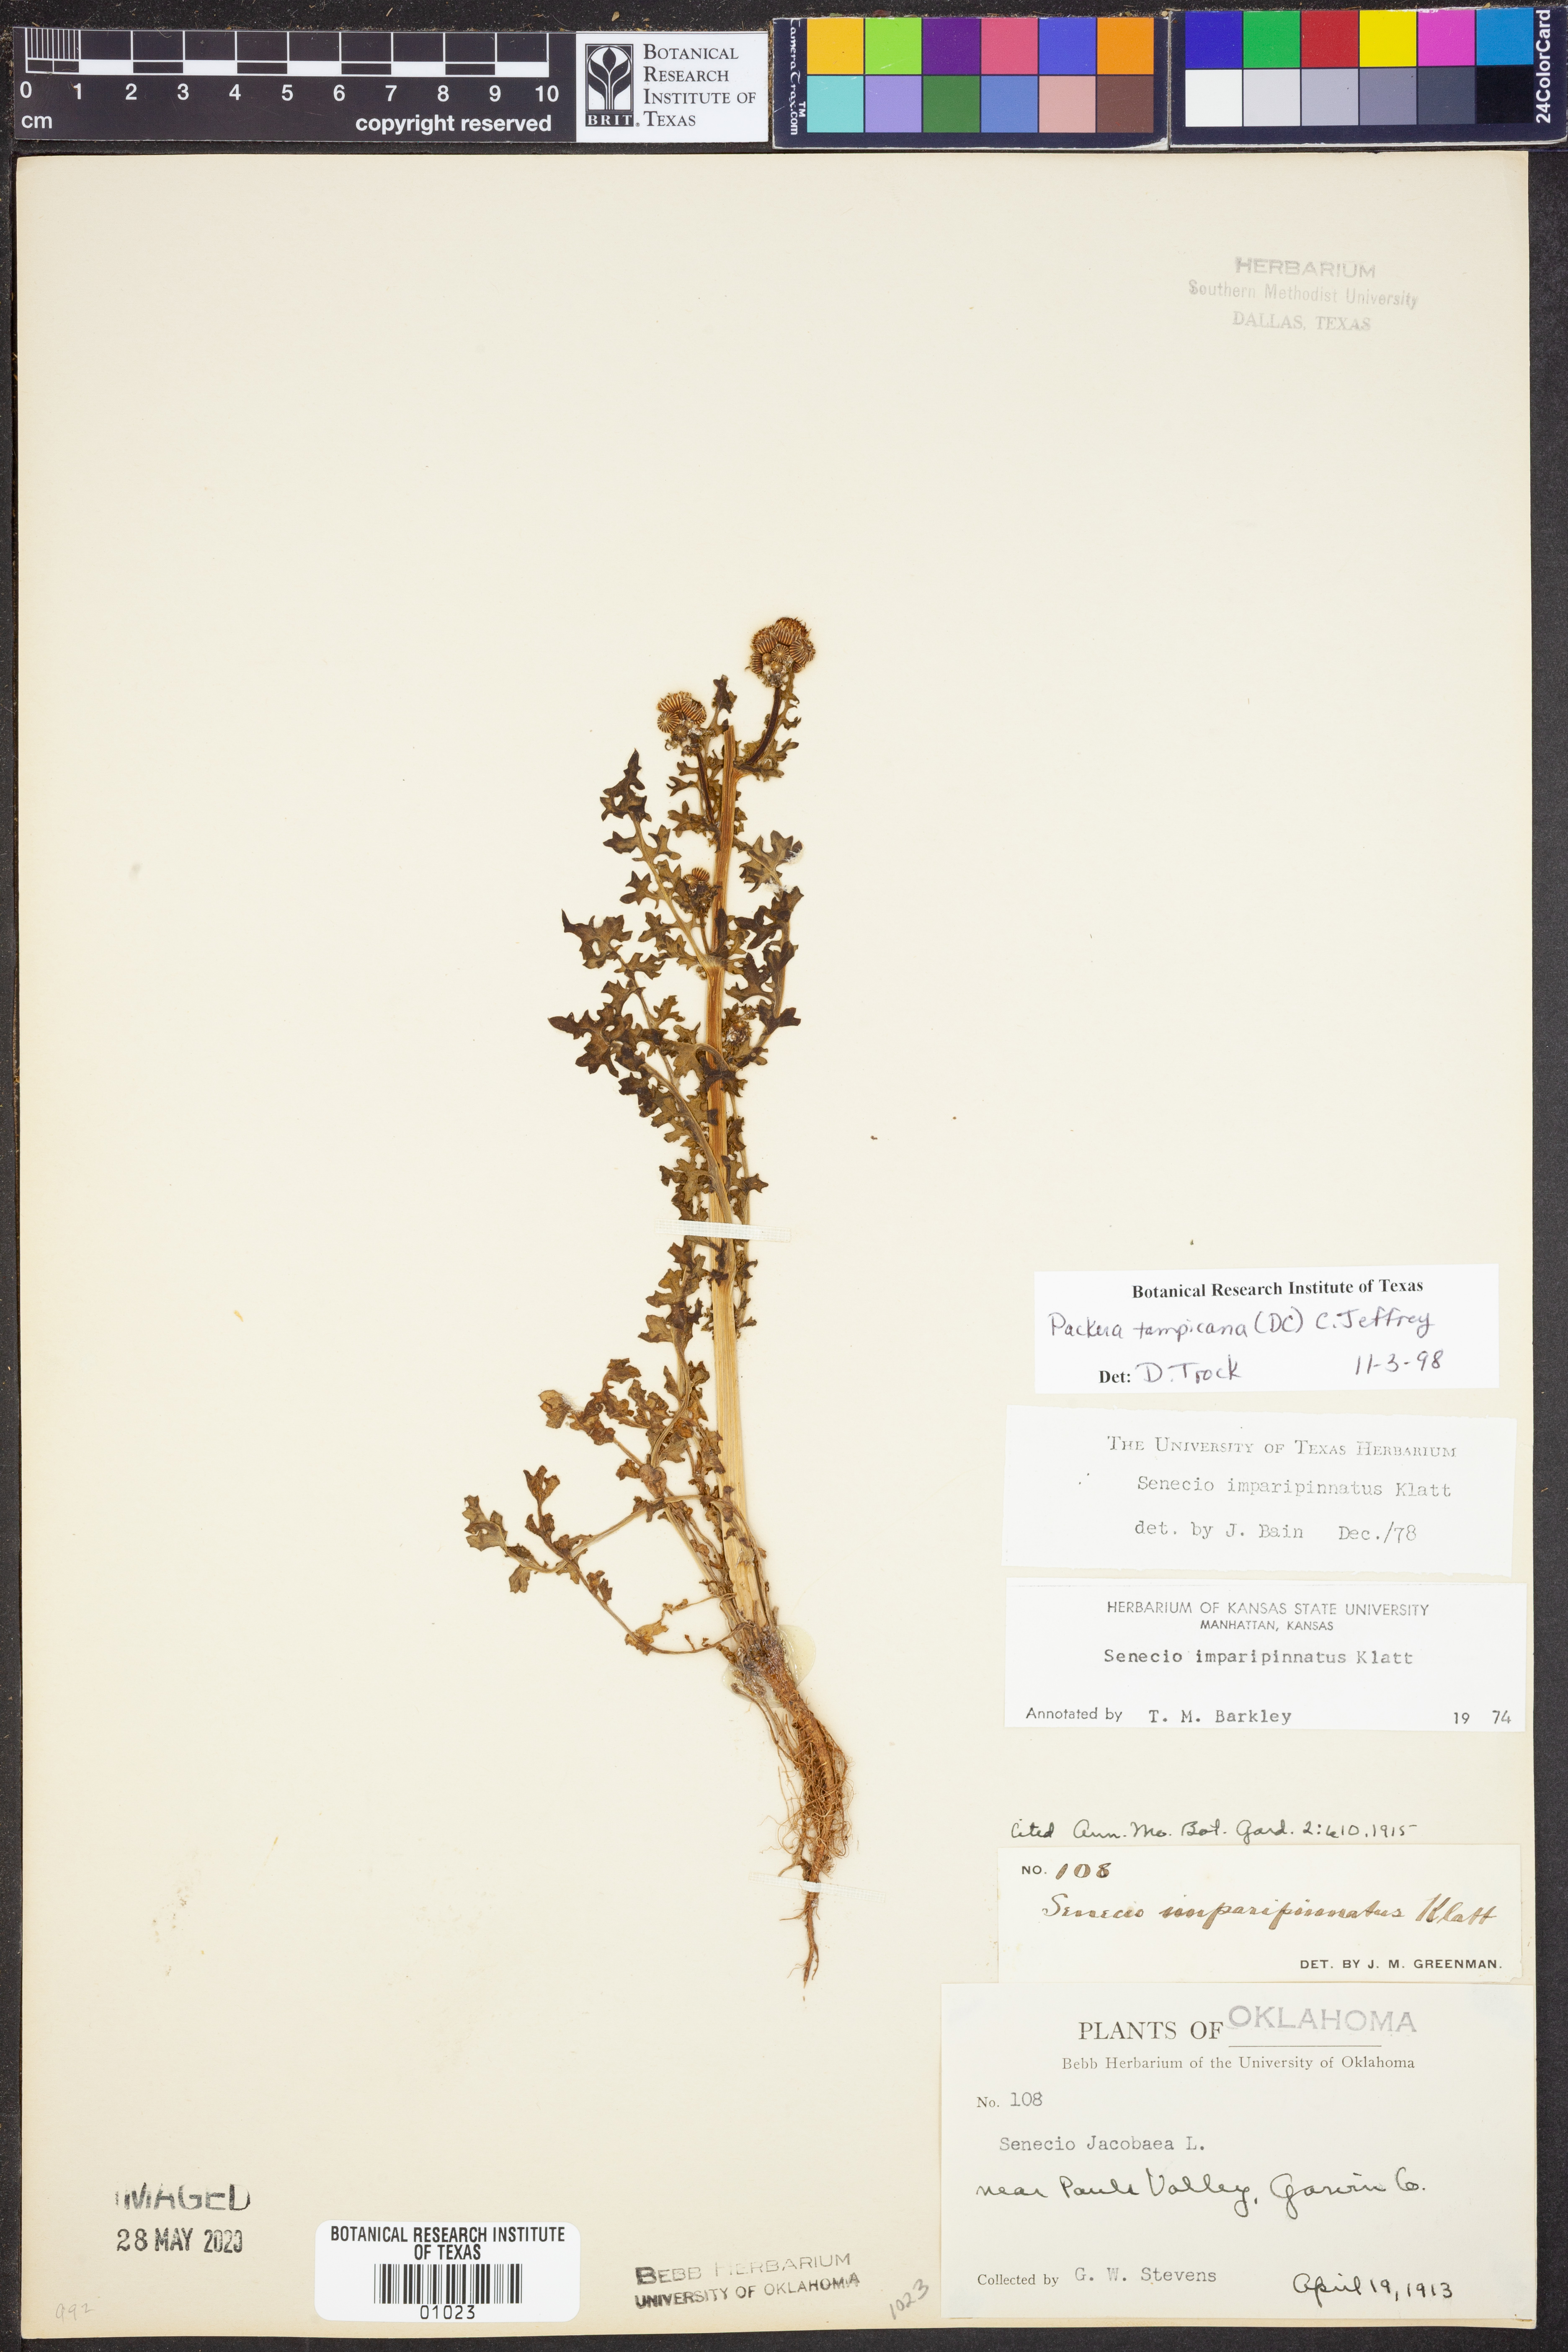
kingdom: Plantae
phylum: Tracheophyta
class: Magnoliopsida
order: Asterales
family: Asteraceae
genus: Packera
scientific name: Packera tampicana
